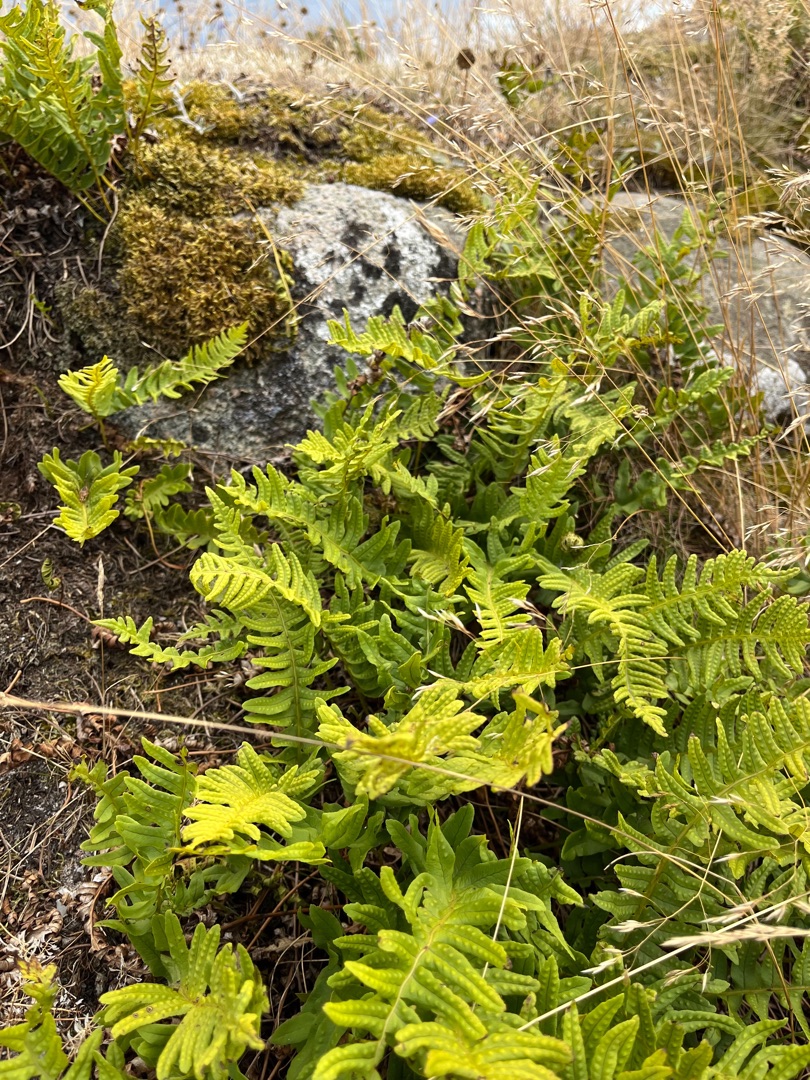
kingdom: Plantae
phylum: Tracheophyta
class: Polypodiopsida
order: Polypodiales
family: Polypodiaceae
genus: Polypodium
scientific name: Polypodium vulgare
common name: Almindelig engelsød
